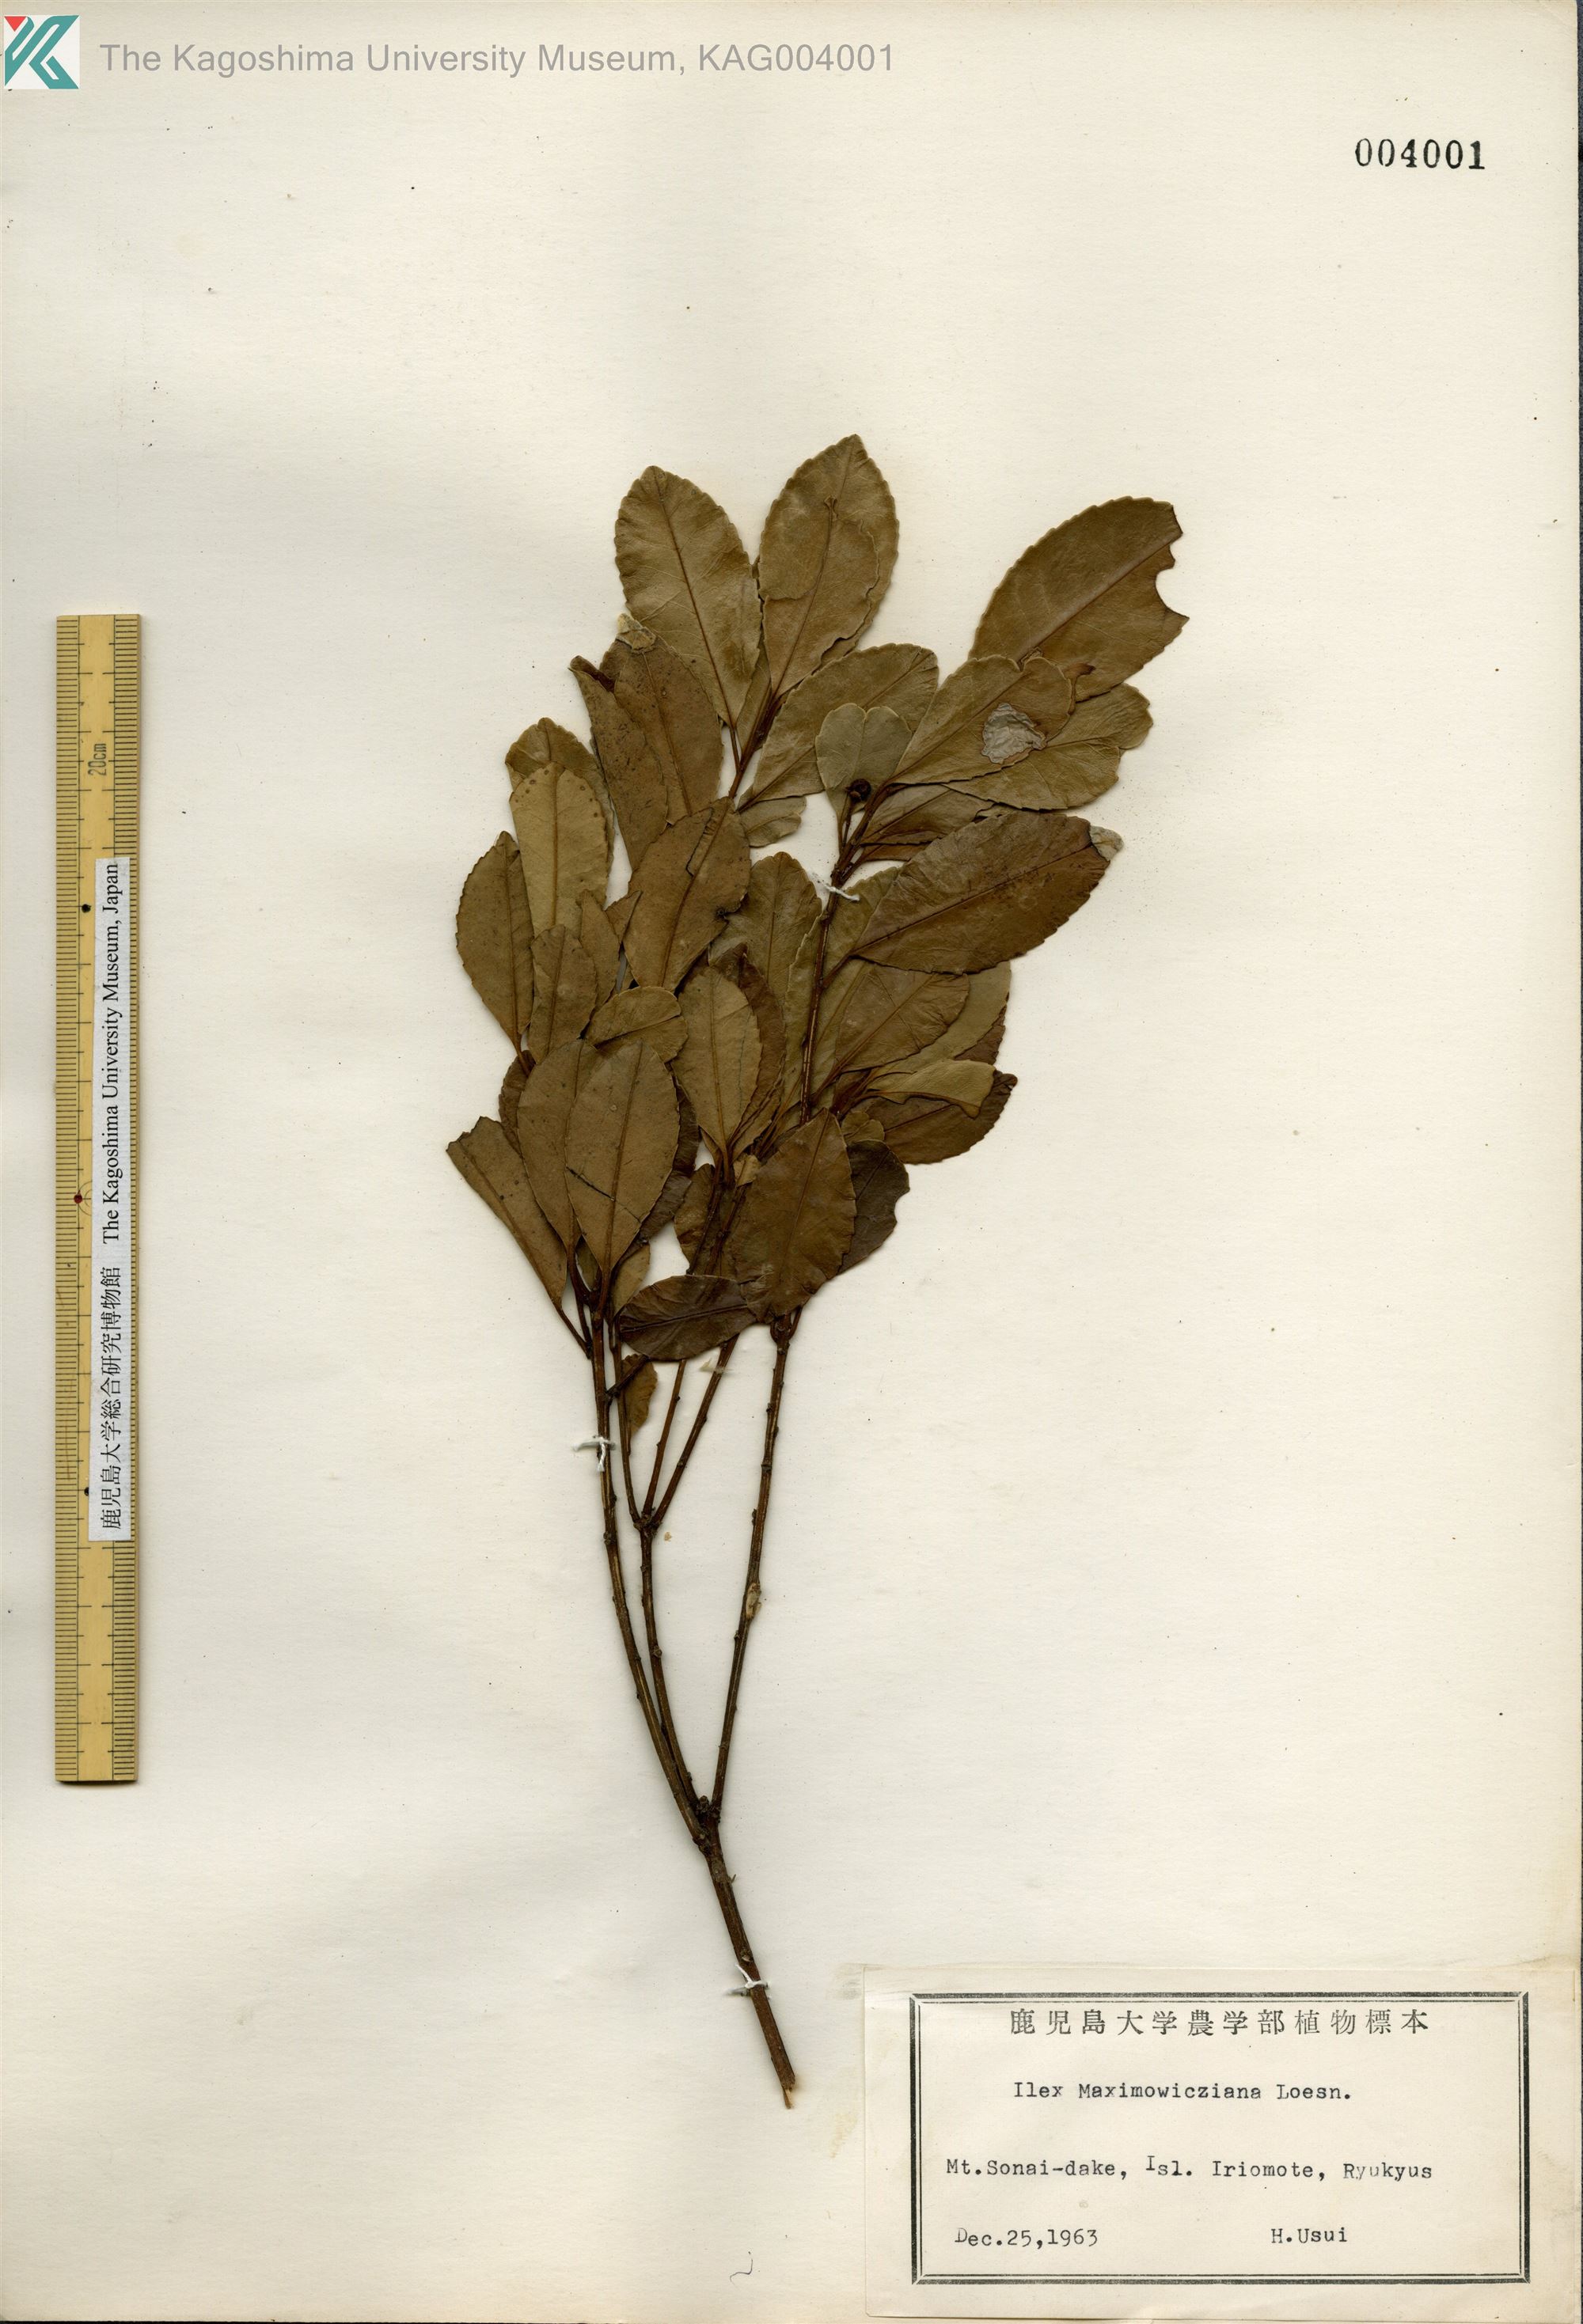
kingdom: Plantae
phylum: Tracheophyta
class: Magnoliopsida
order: Aquifoliales
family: Aquifoliaceae
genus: Ilex
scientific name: Ilex maximowicziana
